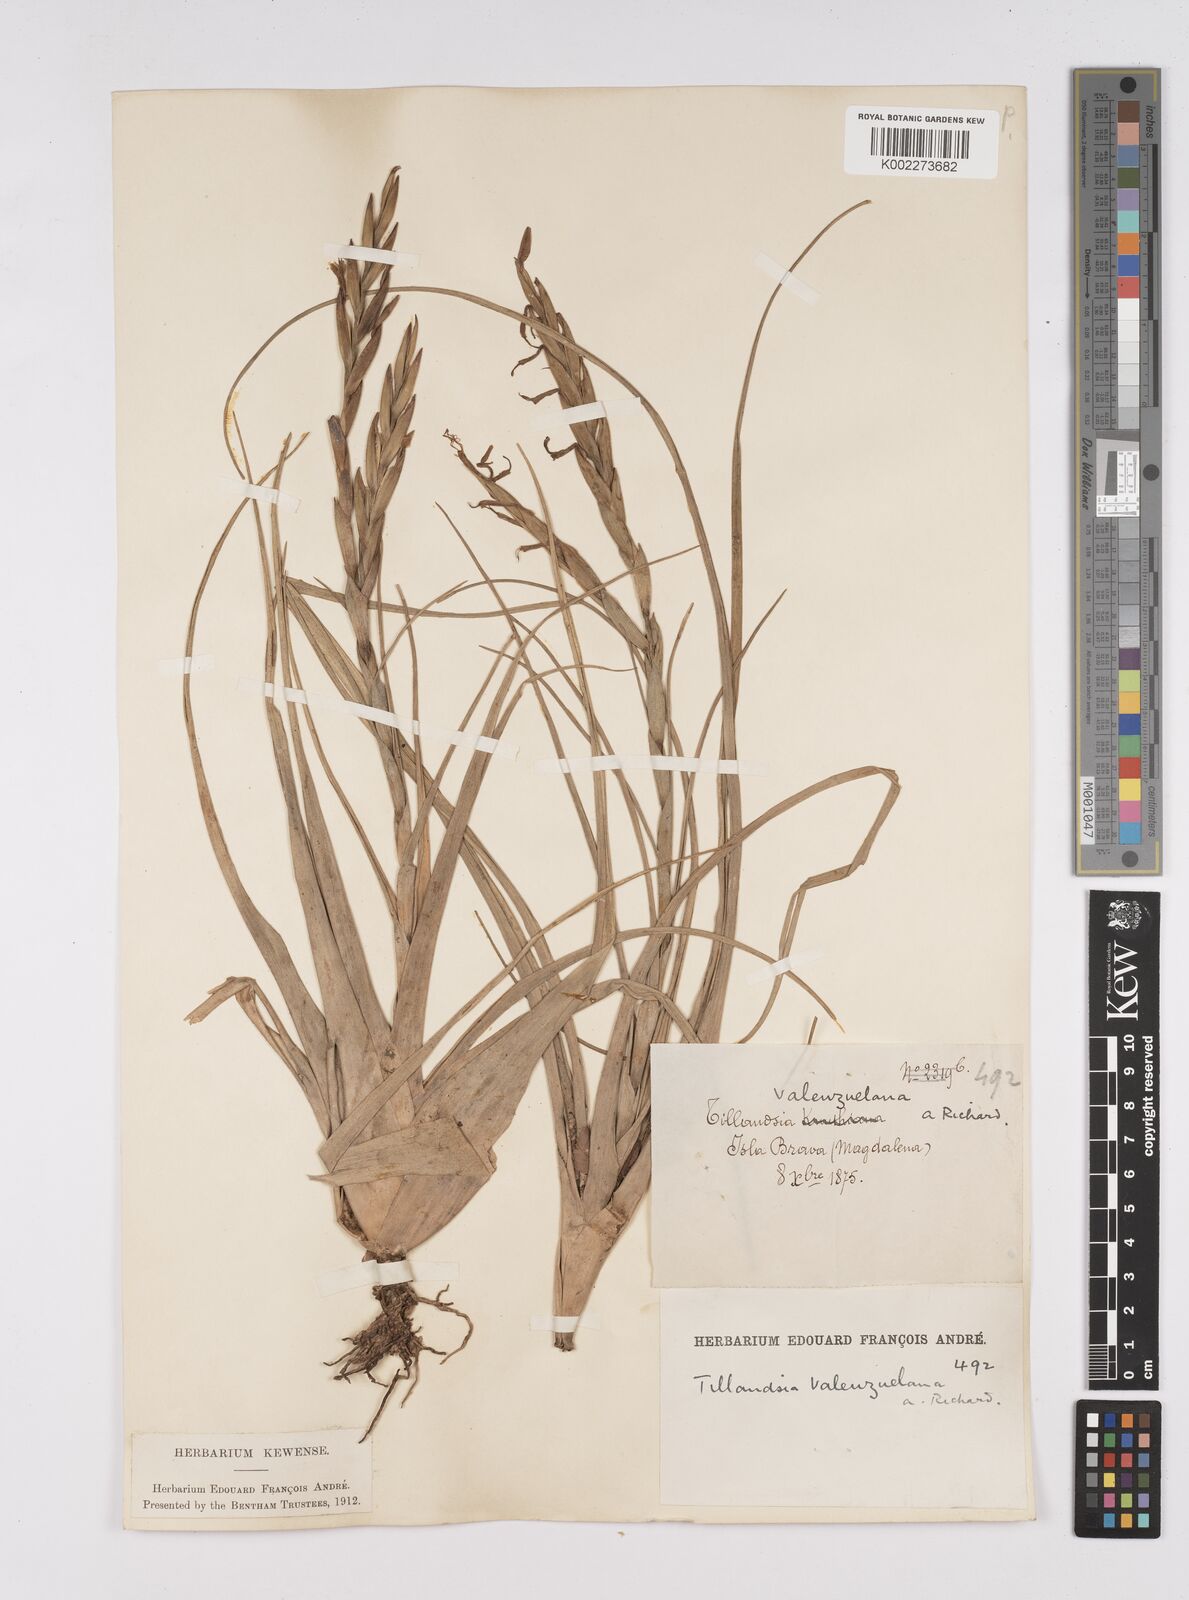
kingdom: Plantae
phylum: Tracheophyta
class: Liliopsida
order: Poales
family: Bromeliaceae
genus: Tillandsia
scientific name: Tillandsia variabilis
